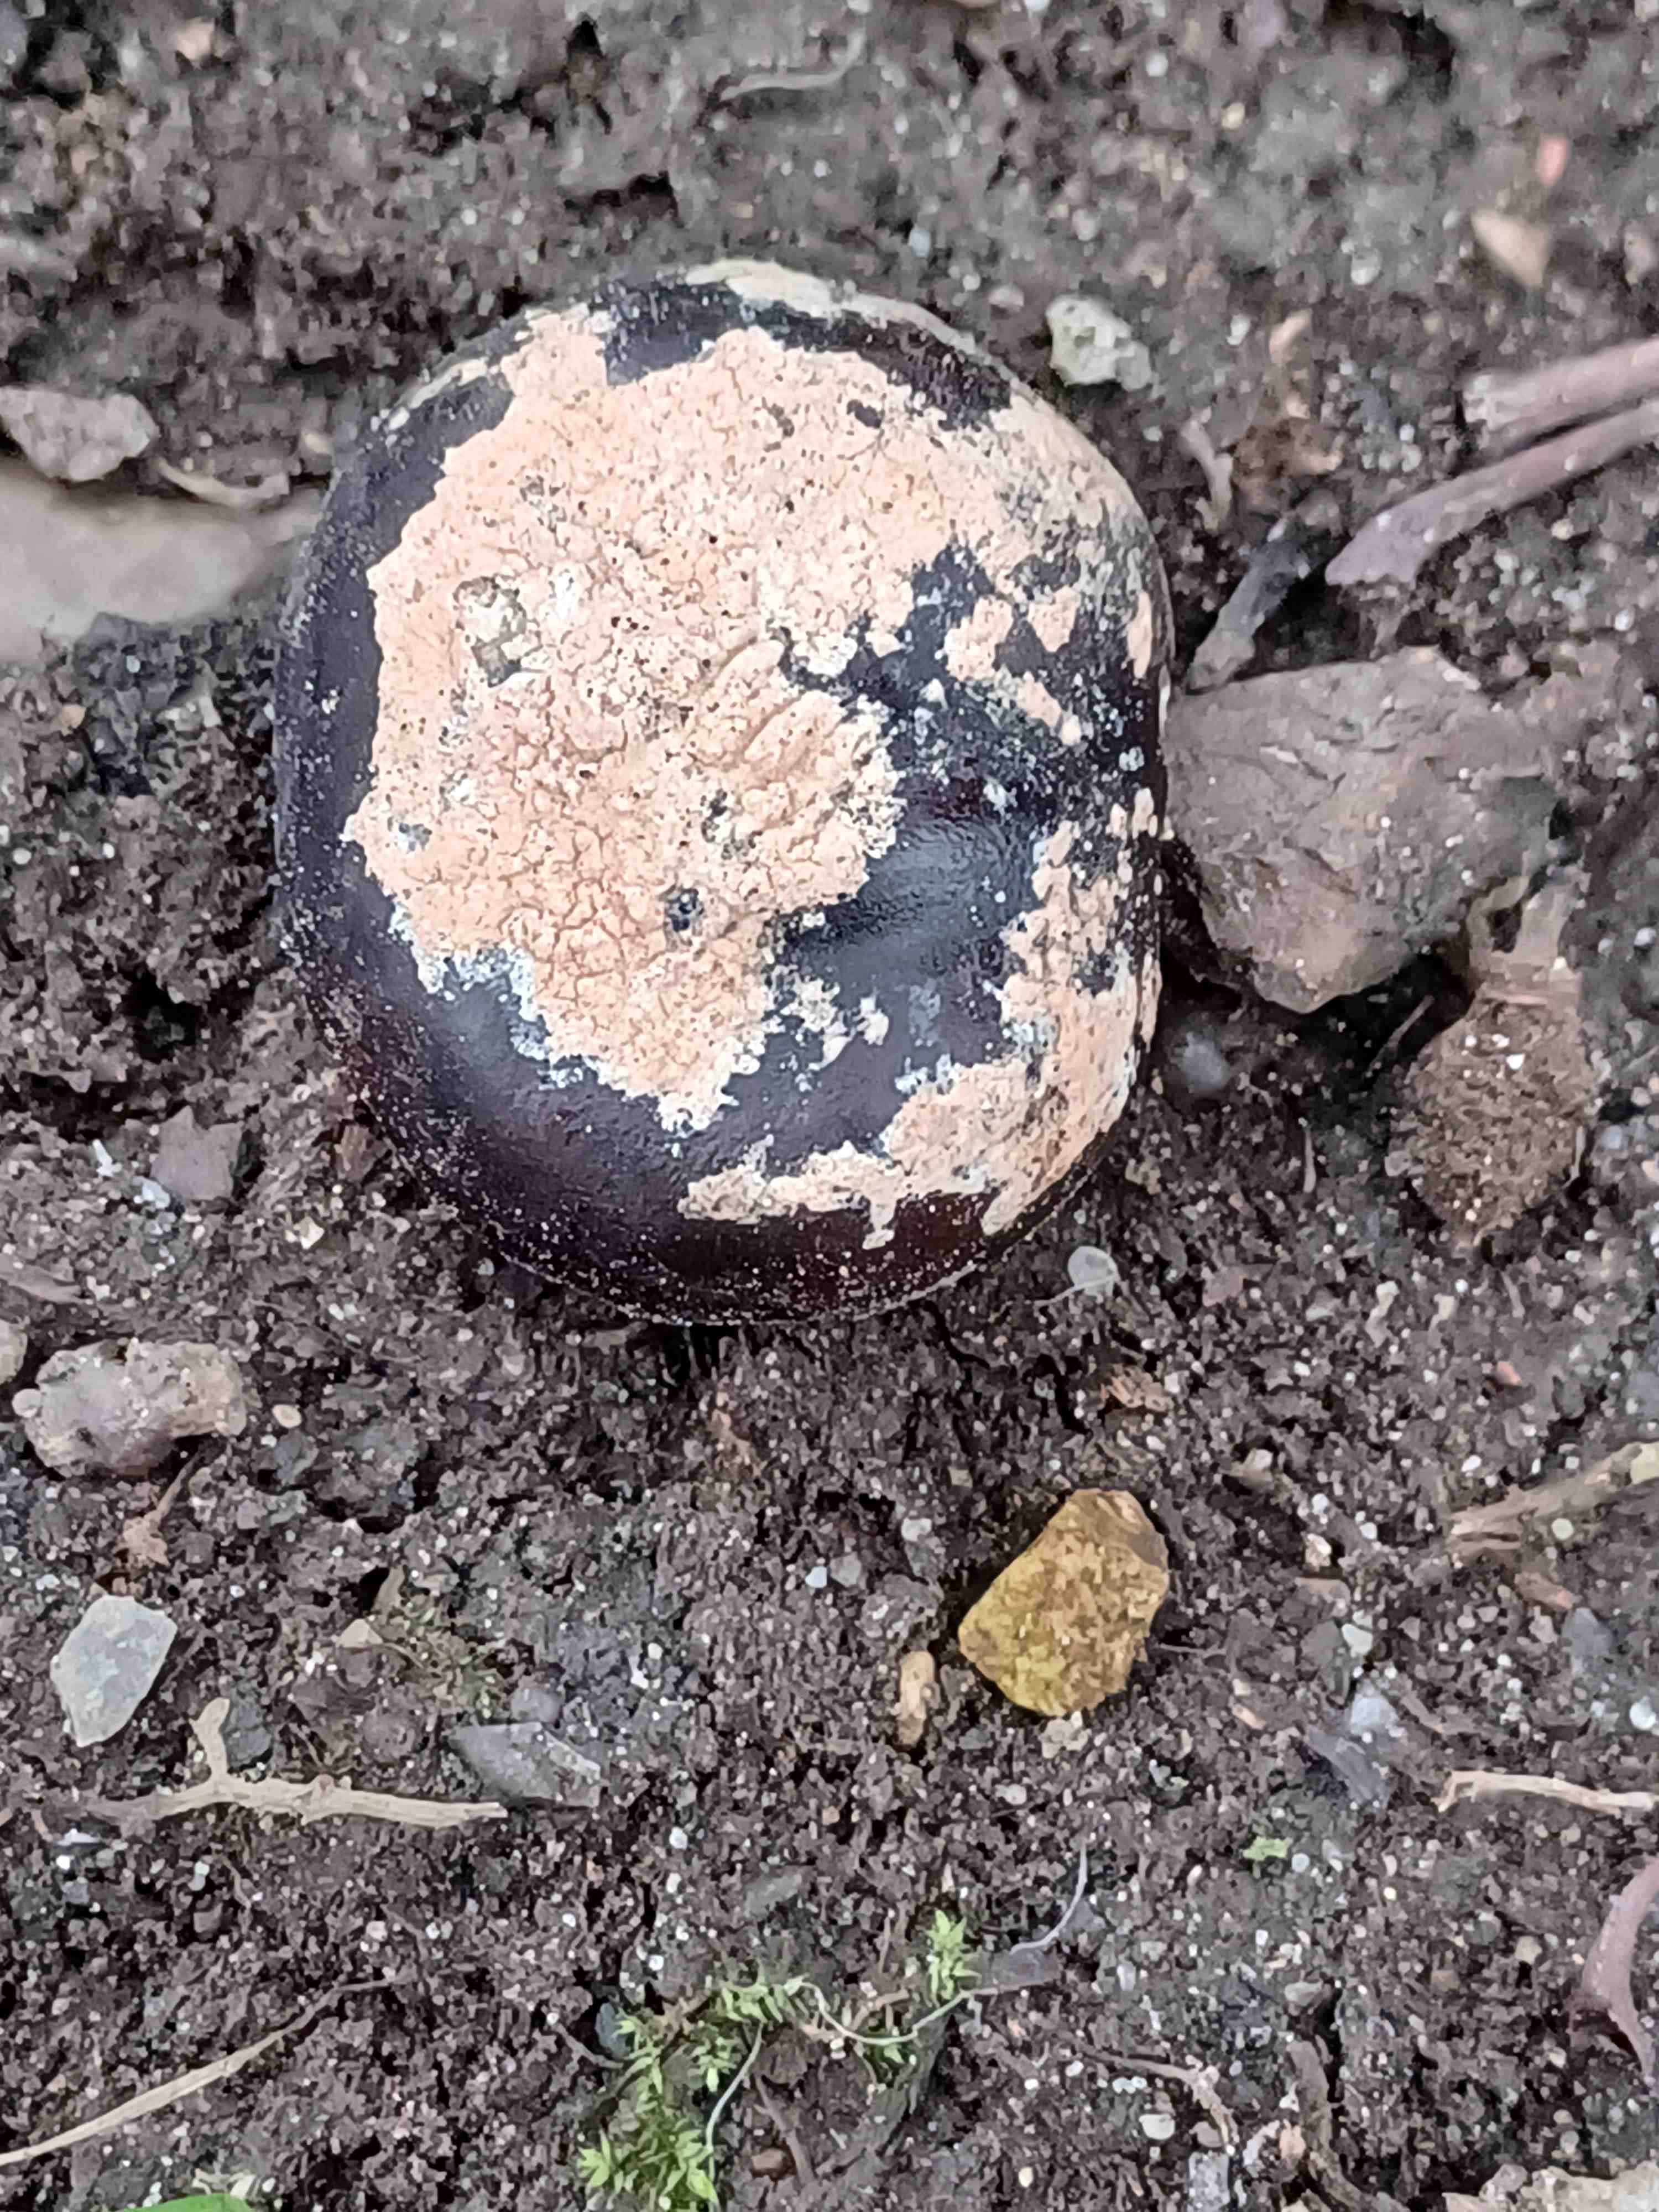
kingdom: Fungi
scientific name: Fungi
